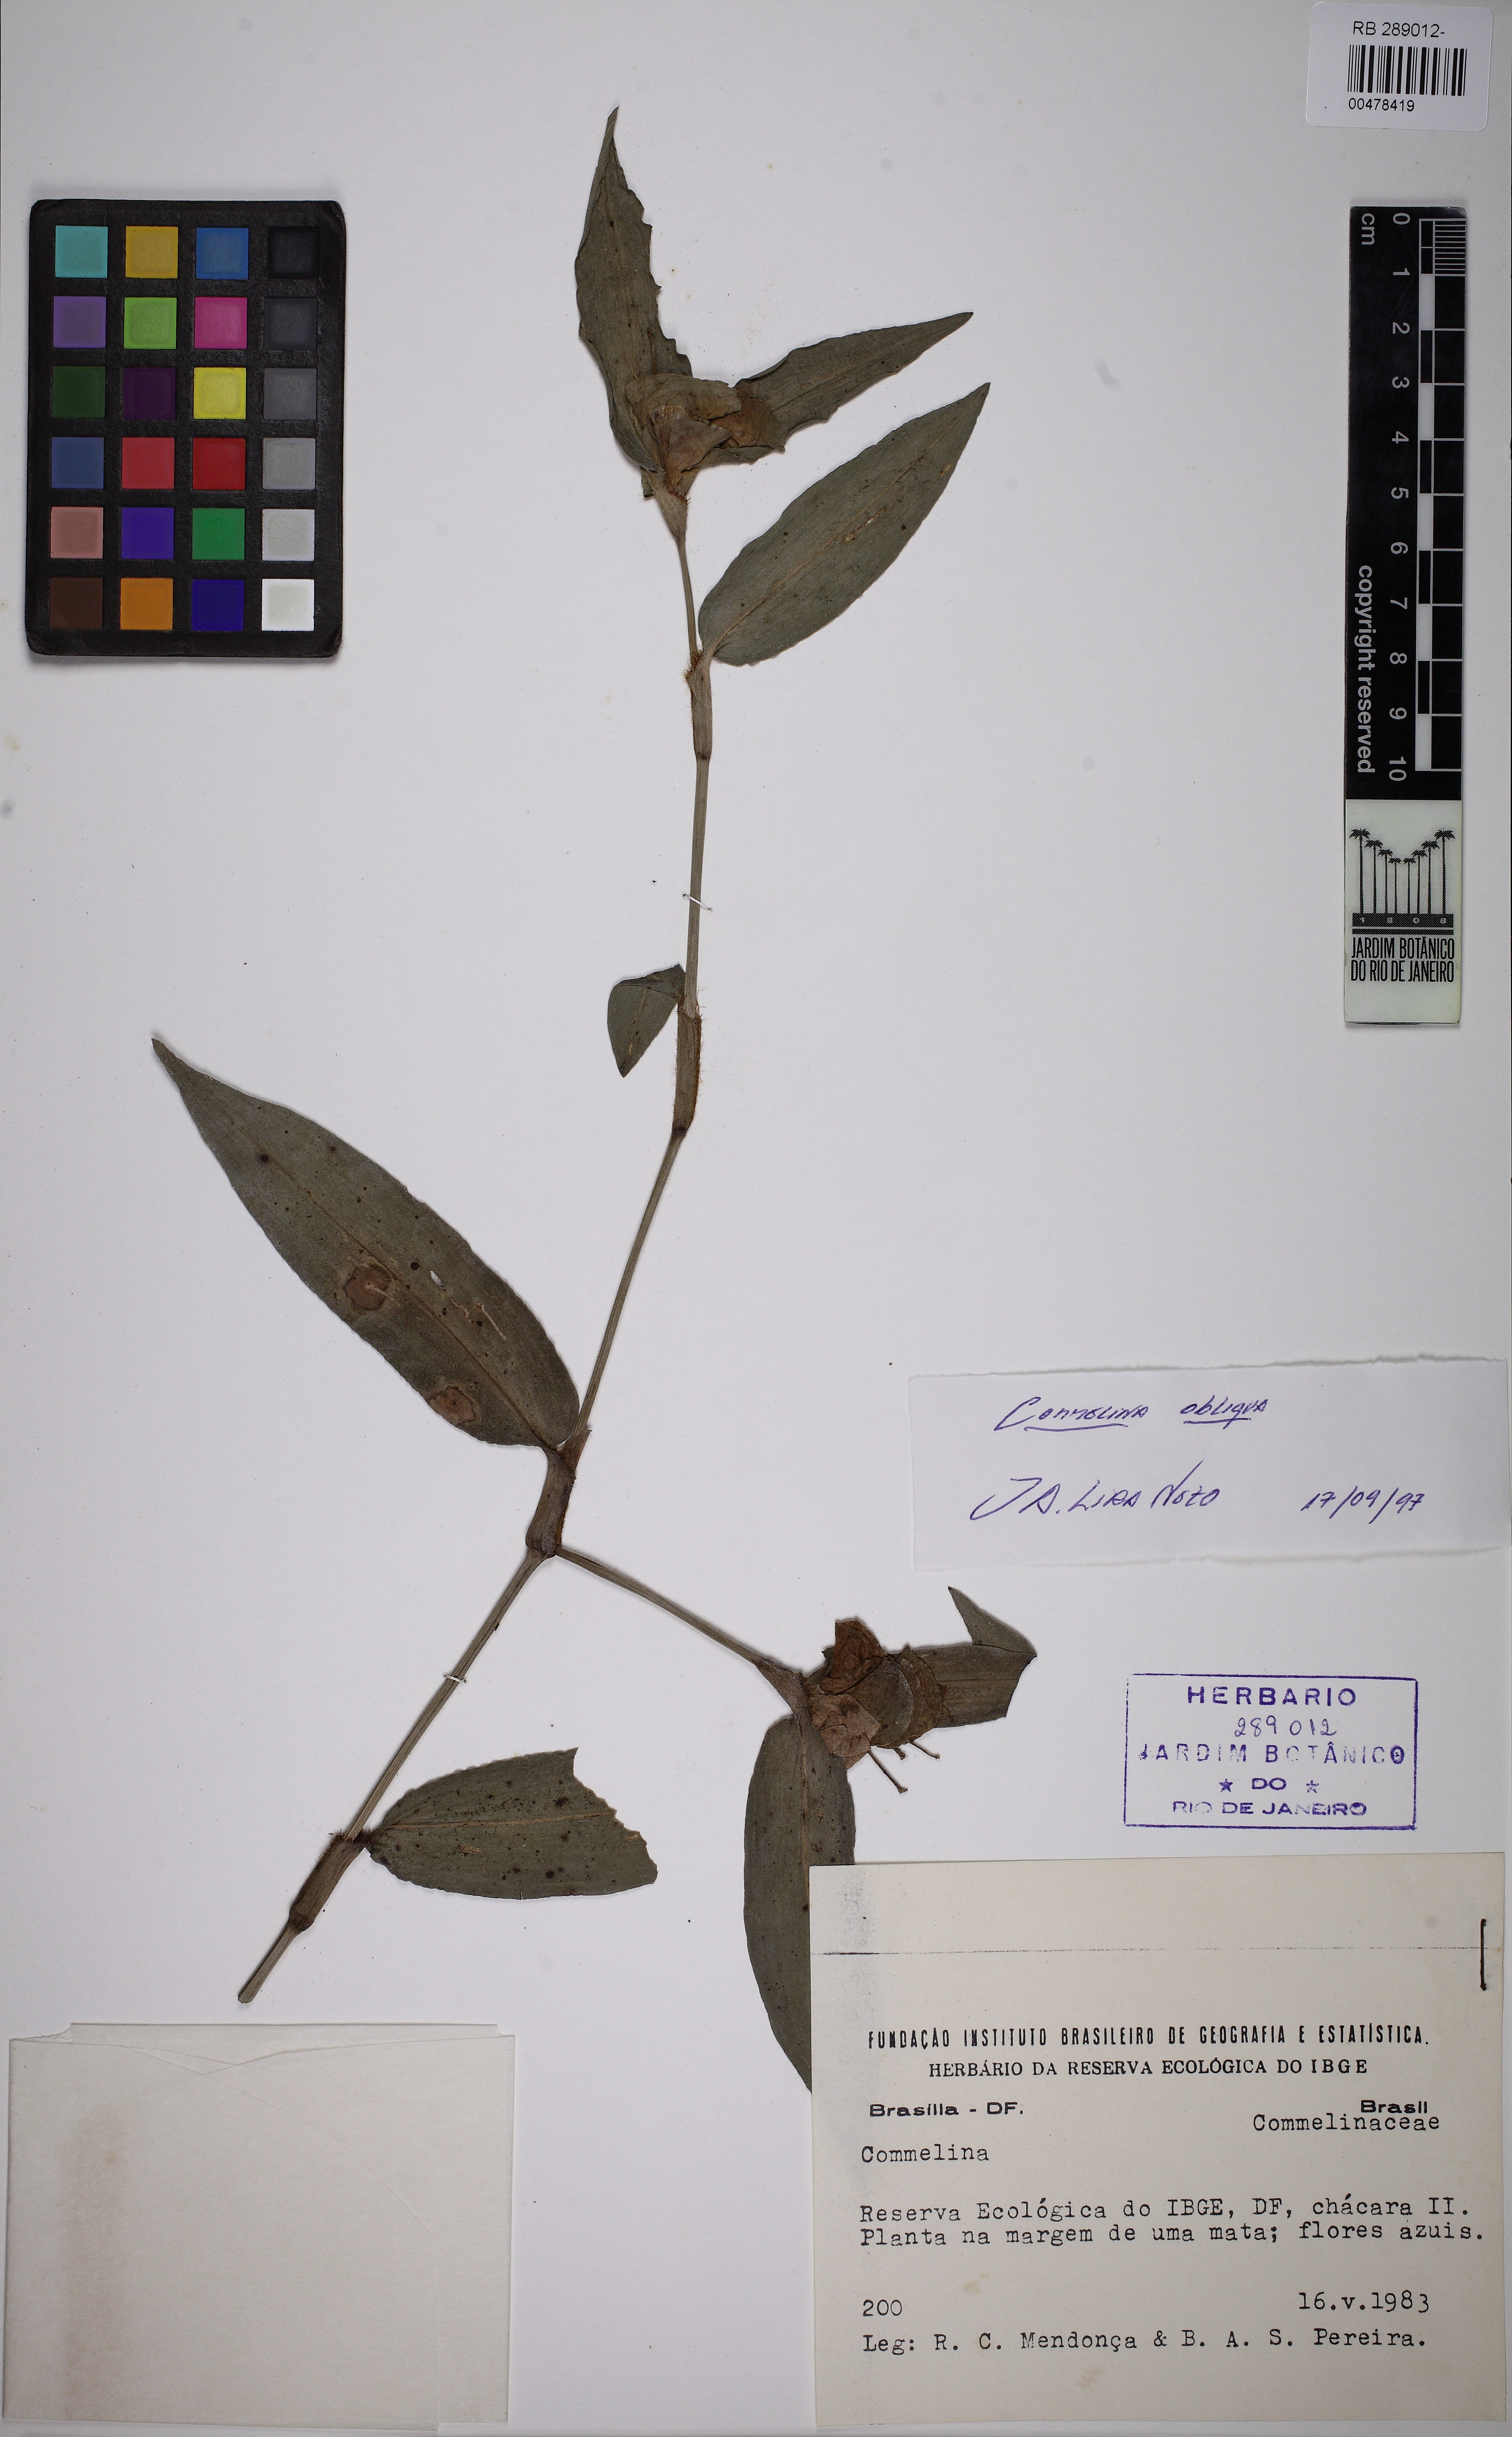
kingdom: Plantae
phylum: Tracheophyta
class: Liliopsida
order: Commelinales
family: Commelinaceae
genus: Commelina
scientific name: Commelina obliqua
